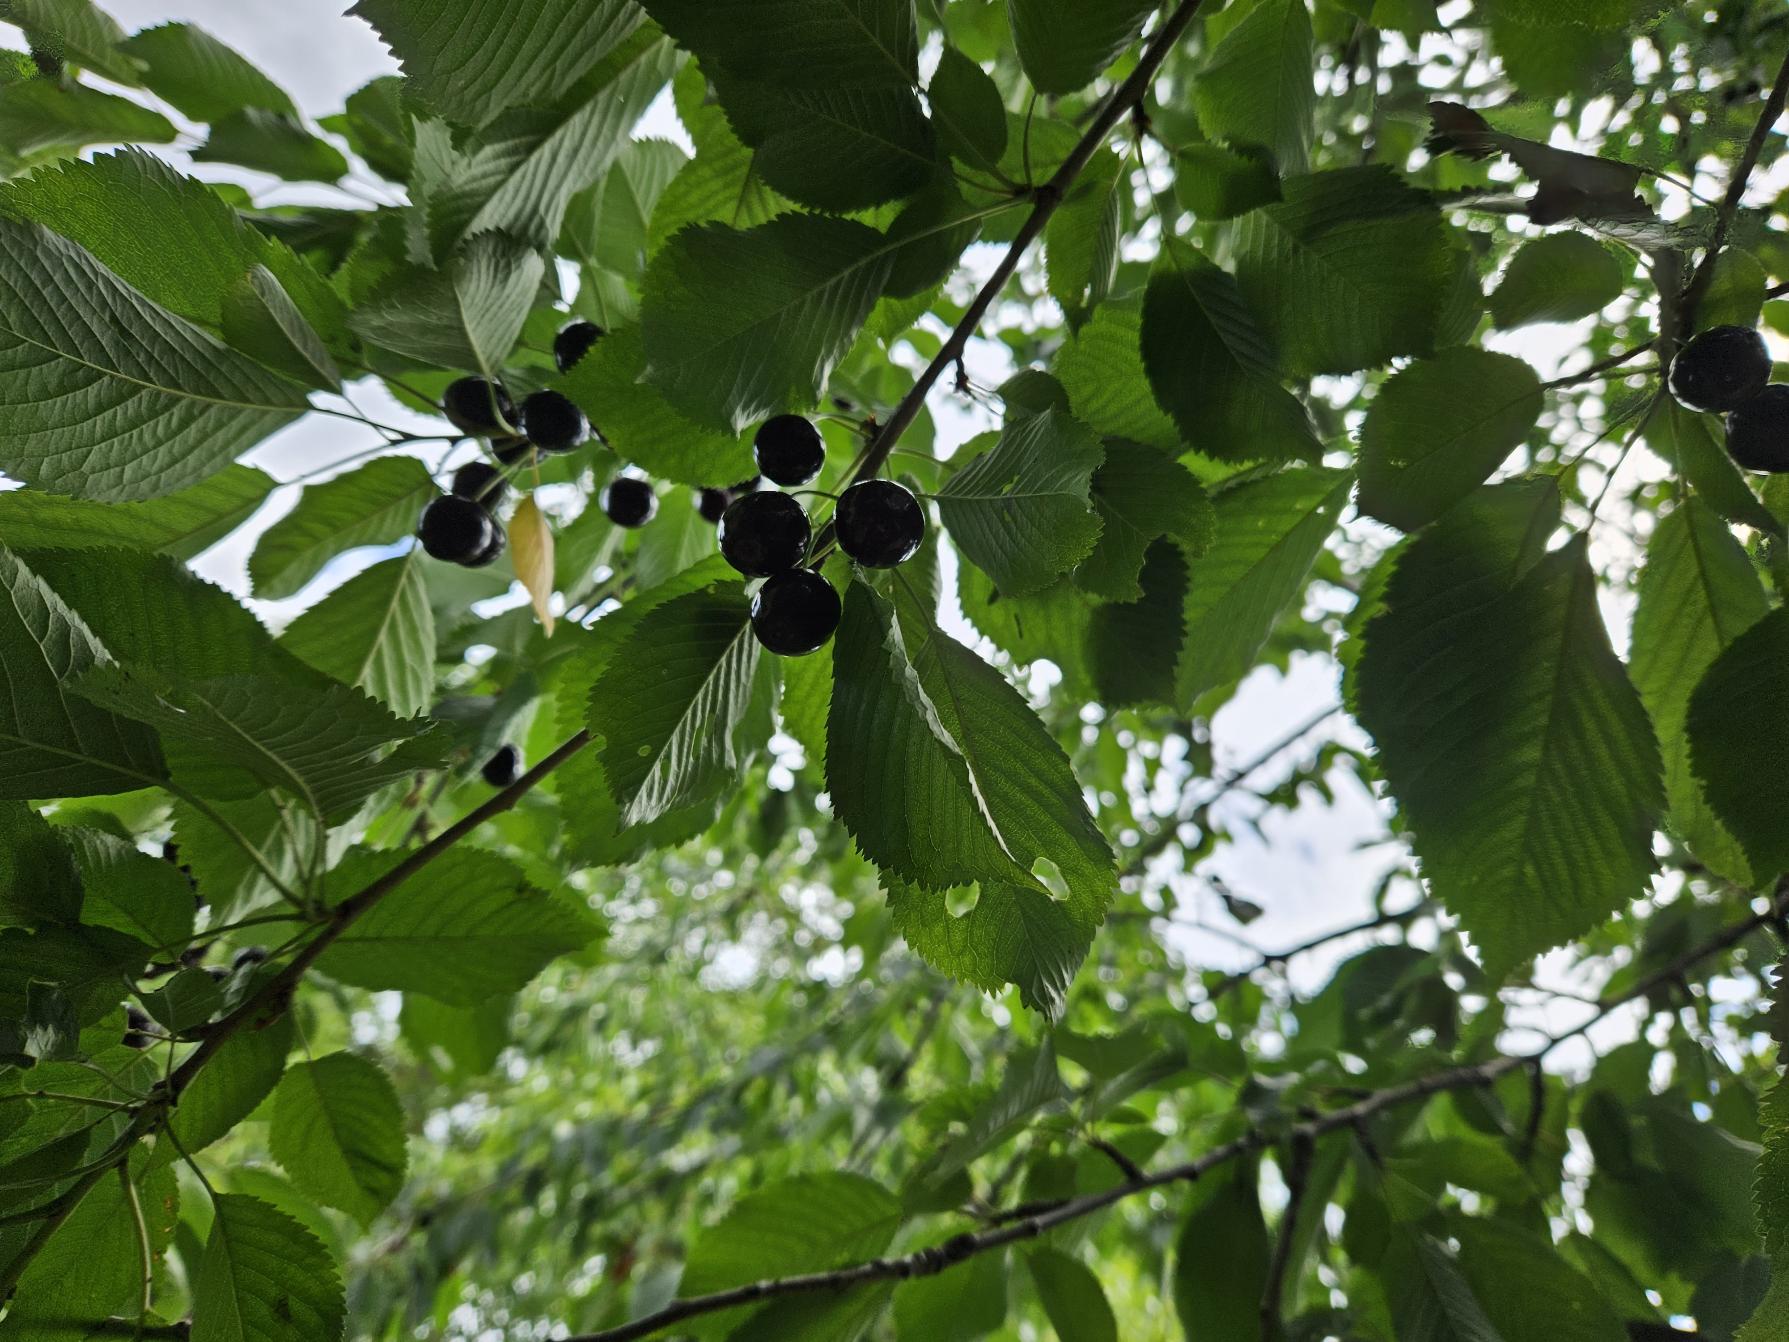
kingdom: Plantae
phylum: Tracheophyta
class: Magnoliopsida
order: Rosales
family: Rosaceae
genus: Prunus
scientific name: Prunus avium
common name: Fugle-kirsebær
